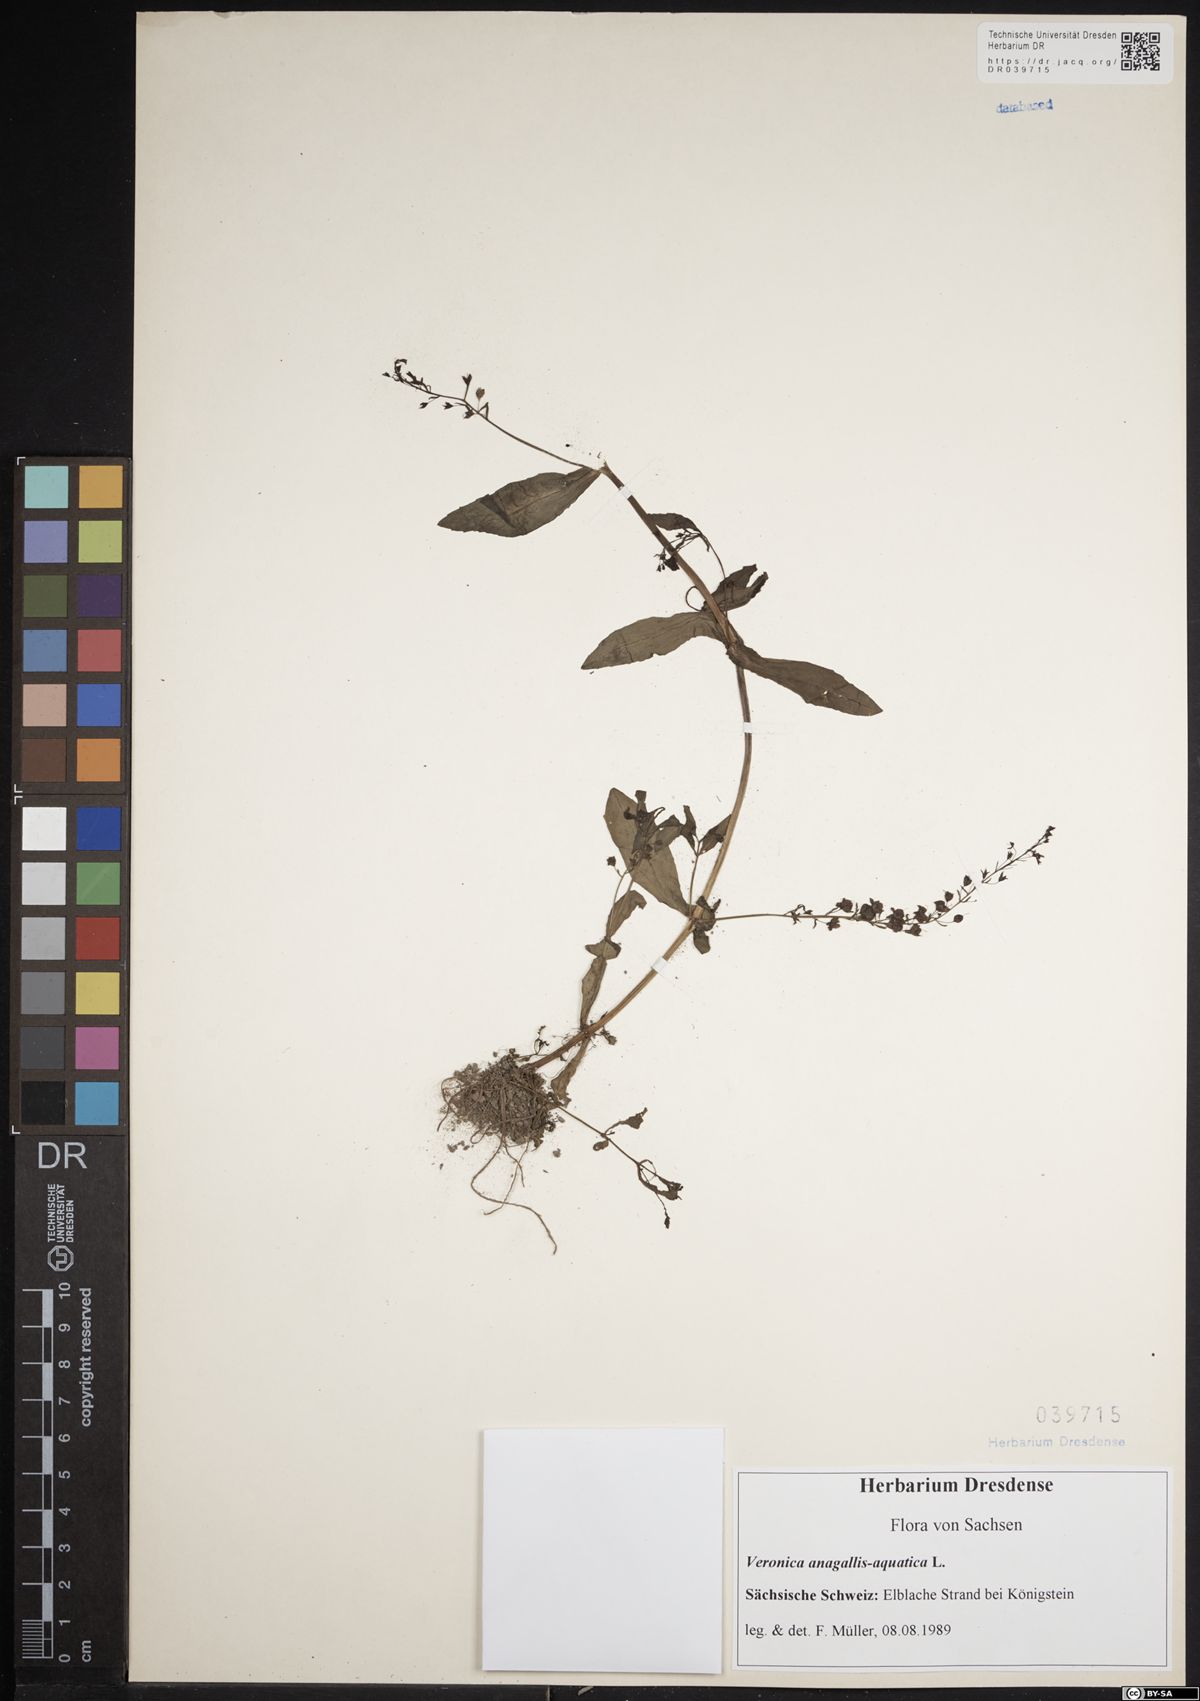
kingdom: Plantae
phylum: Tracheophyta
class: Magnoliopsida
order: Lamiales
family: Plantaginaceae
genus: Veronica
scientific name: Veronica anagallis-aquatica
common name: Water speedwell
